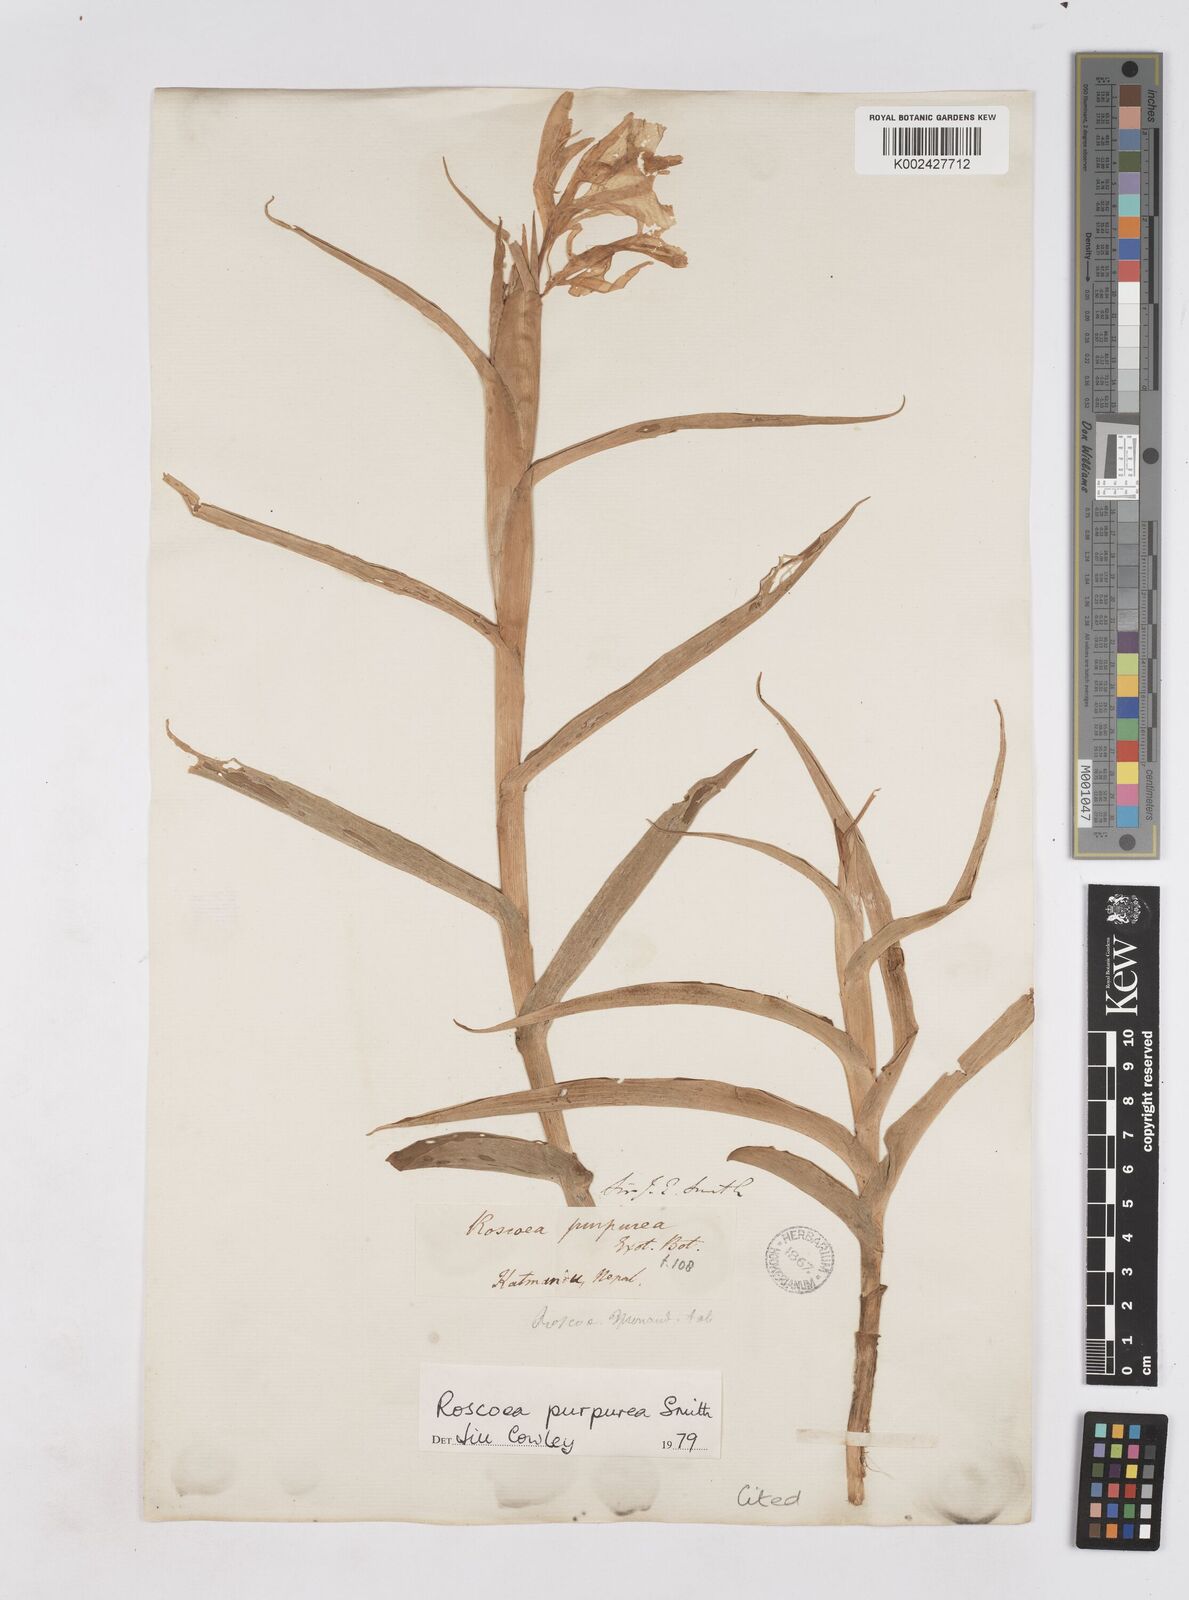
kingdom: Plantae
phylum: Tracheophyta
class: Liliopsida
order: Zingiberales
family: Zingiberaceae
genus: Roscoea
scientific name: Roscoea purpurea
